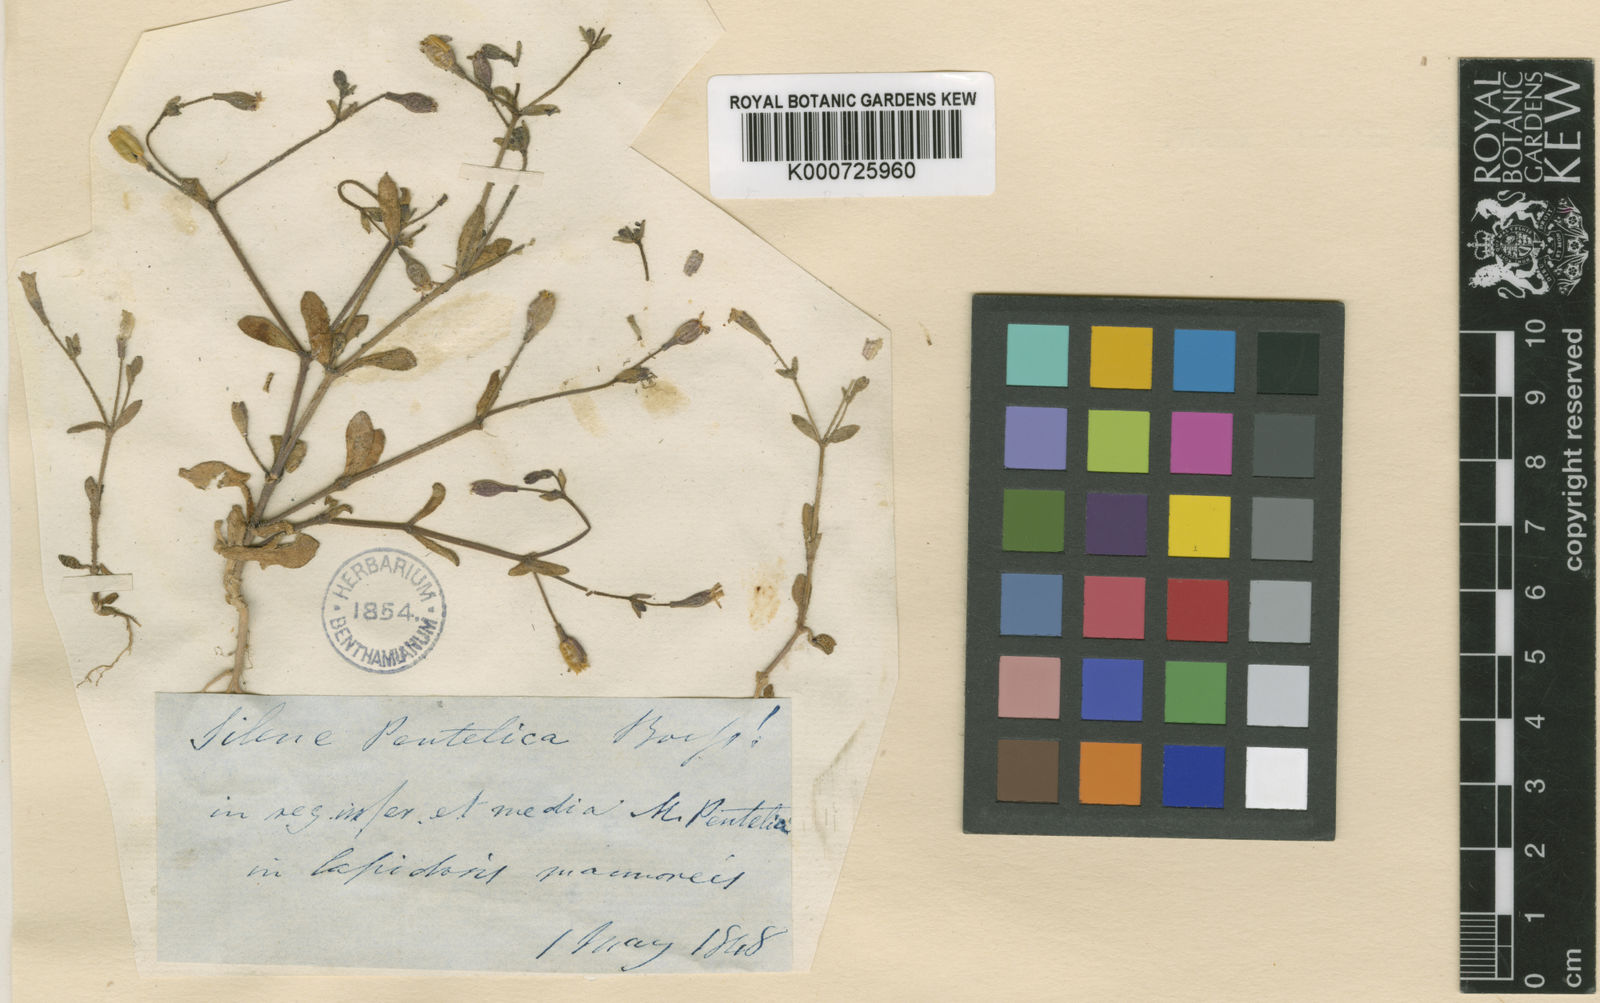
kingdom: Plantae
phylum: Tracheophyta
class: Magnoliopsida
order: Caryophyllales
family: Caryophyllaceae
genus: Silene
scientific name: Silene pentelica
